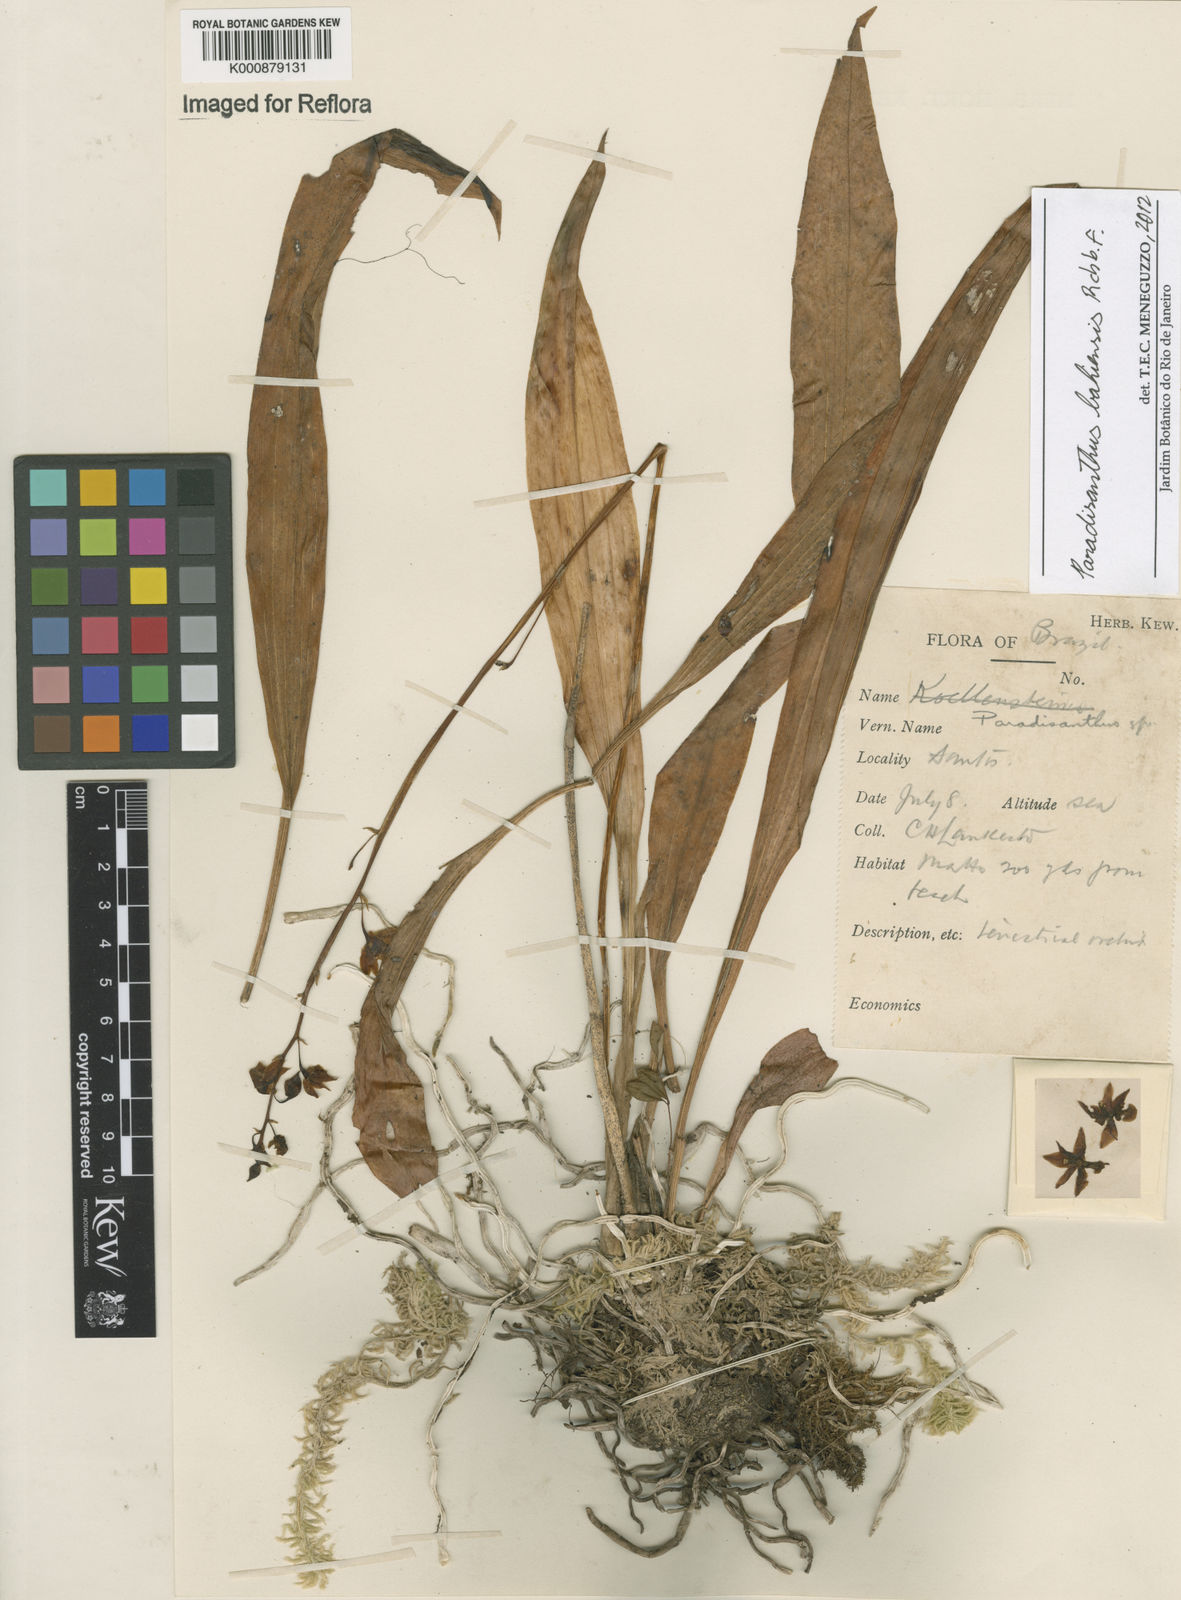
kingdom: Plantae
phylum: Tracheophyta
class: Liliopsida
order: Asparagales
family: Orchidaceae
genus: Paradisanthus
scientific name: Paradisanthus bahiensis
